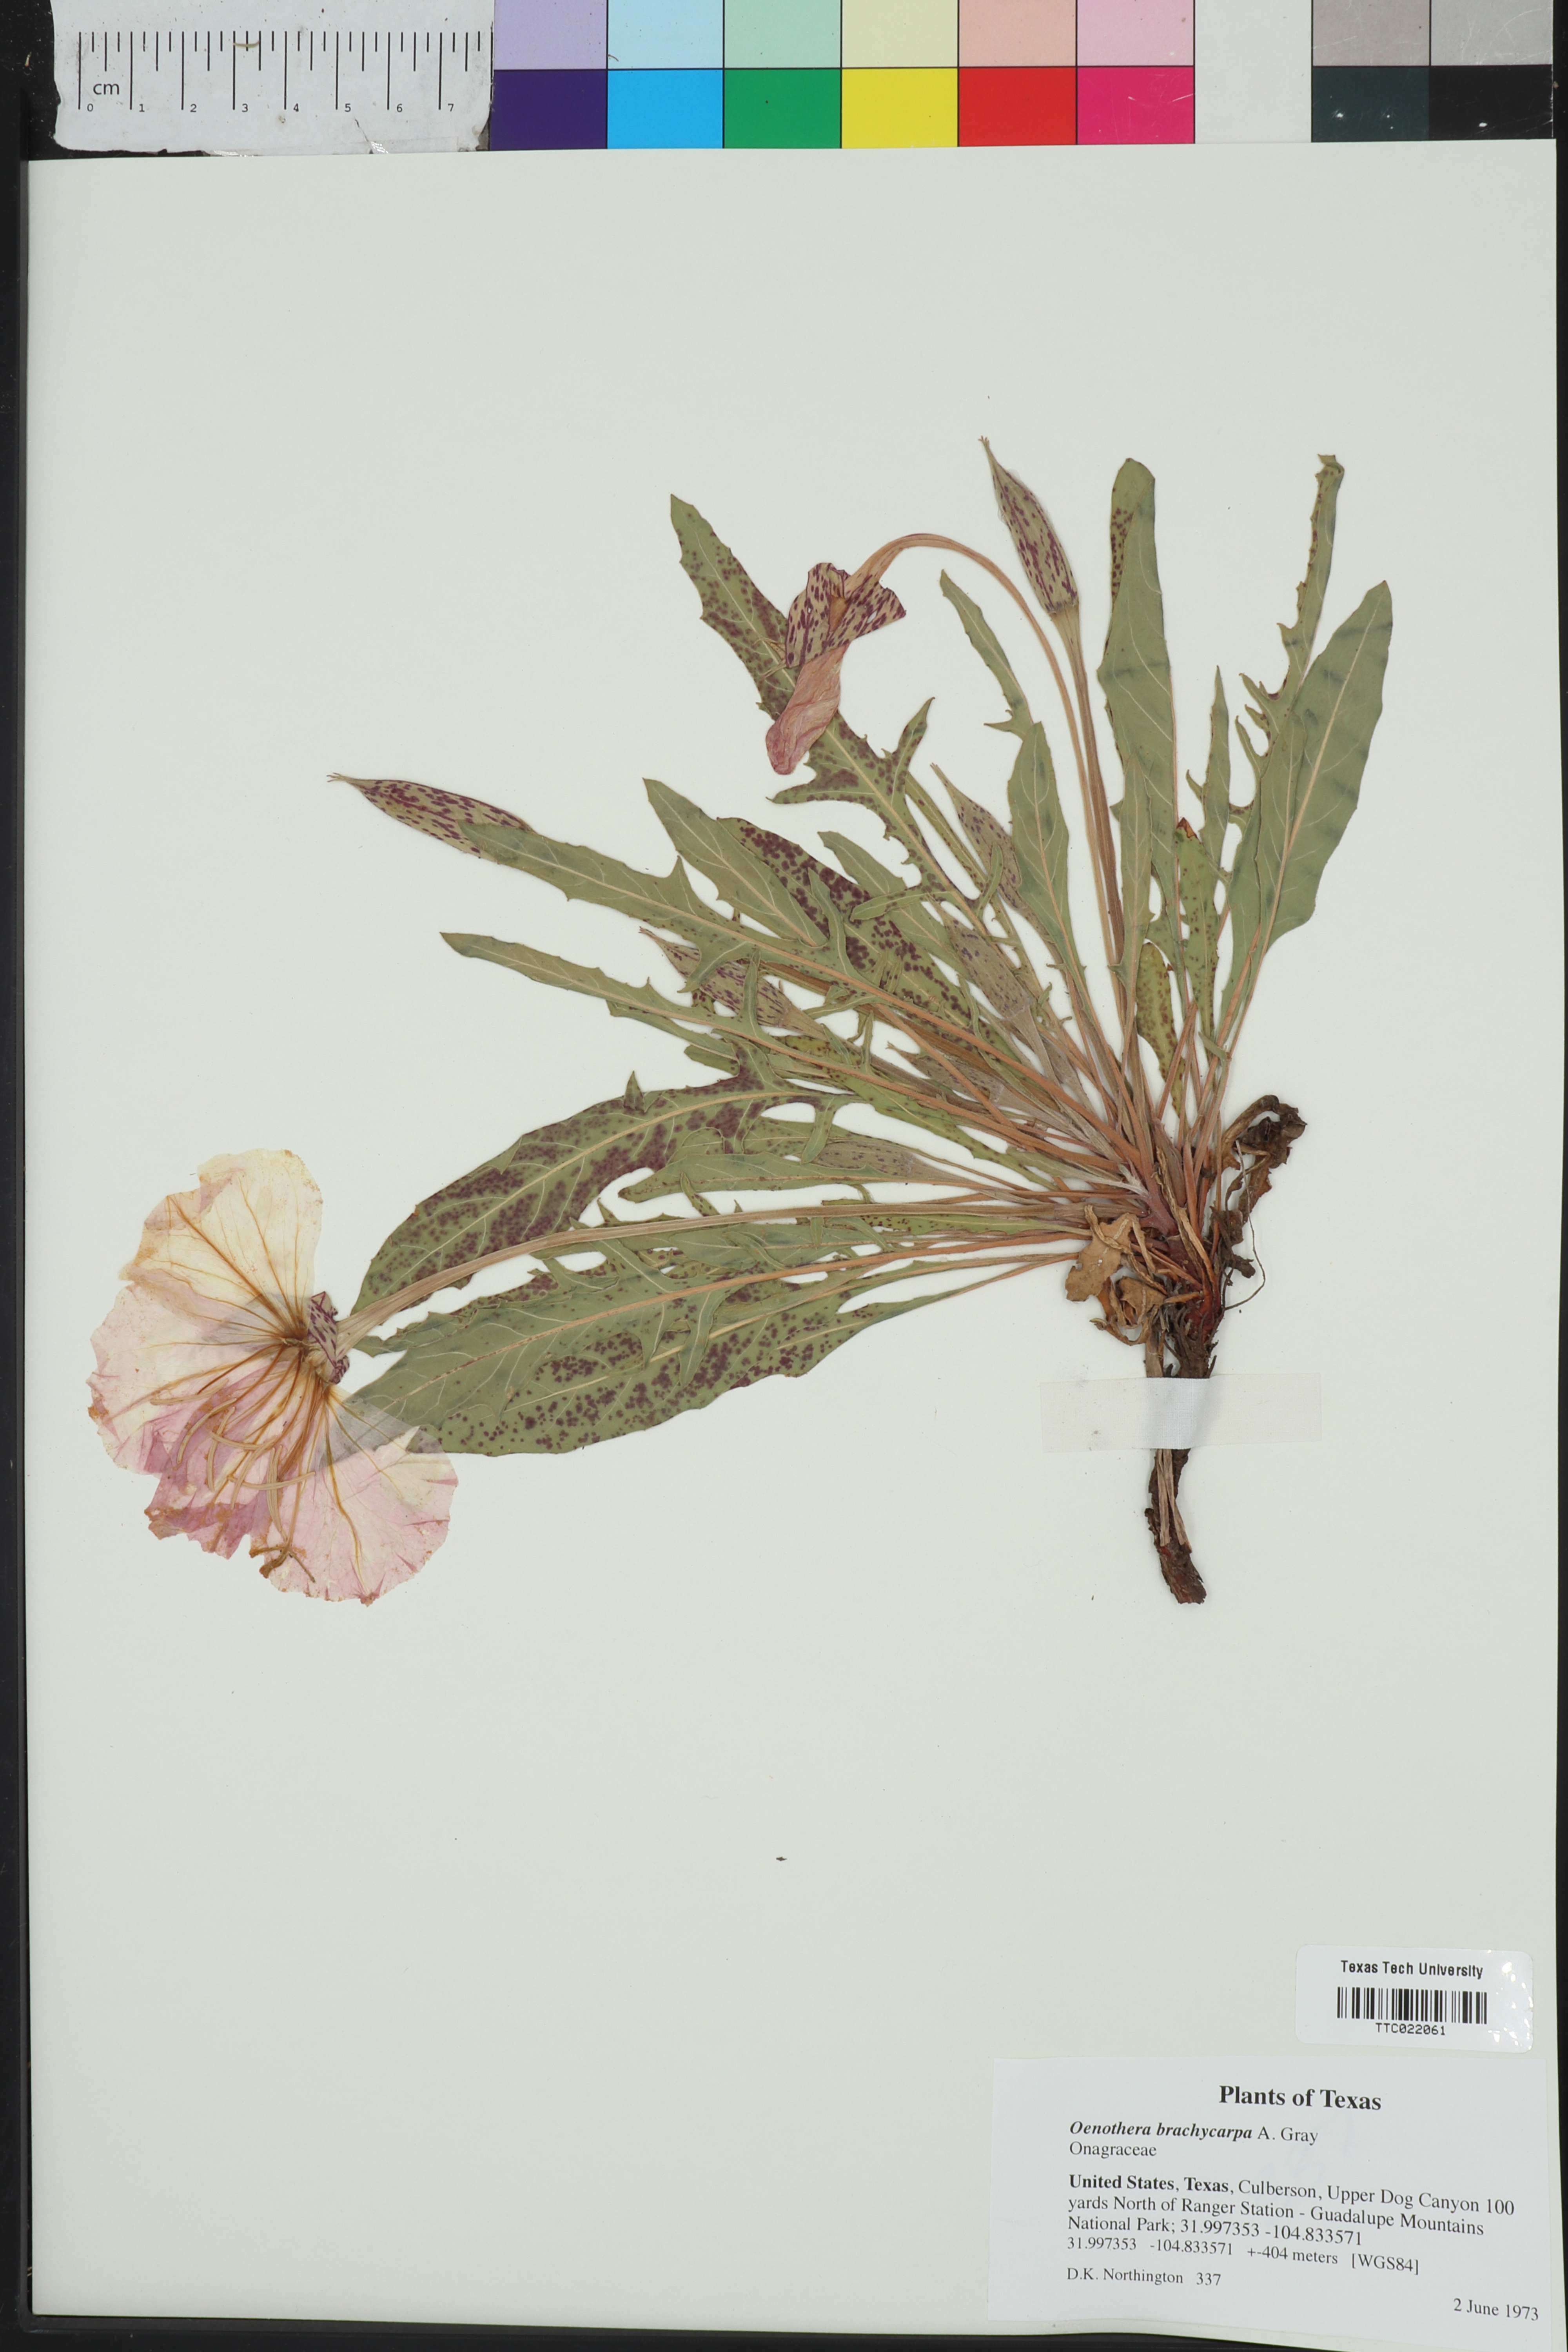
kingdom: Plantae
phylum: Tracheophyta
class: Magnoliopsida
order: Myrtales
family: Onagraceae
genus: Oenothera
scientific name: Oenothera brachycarpa
